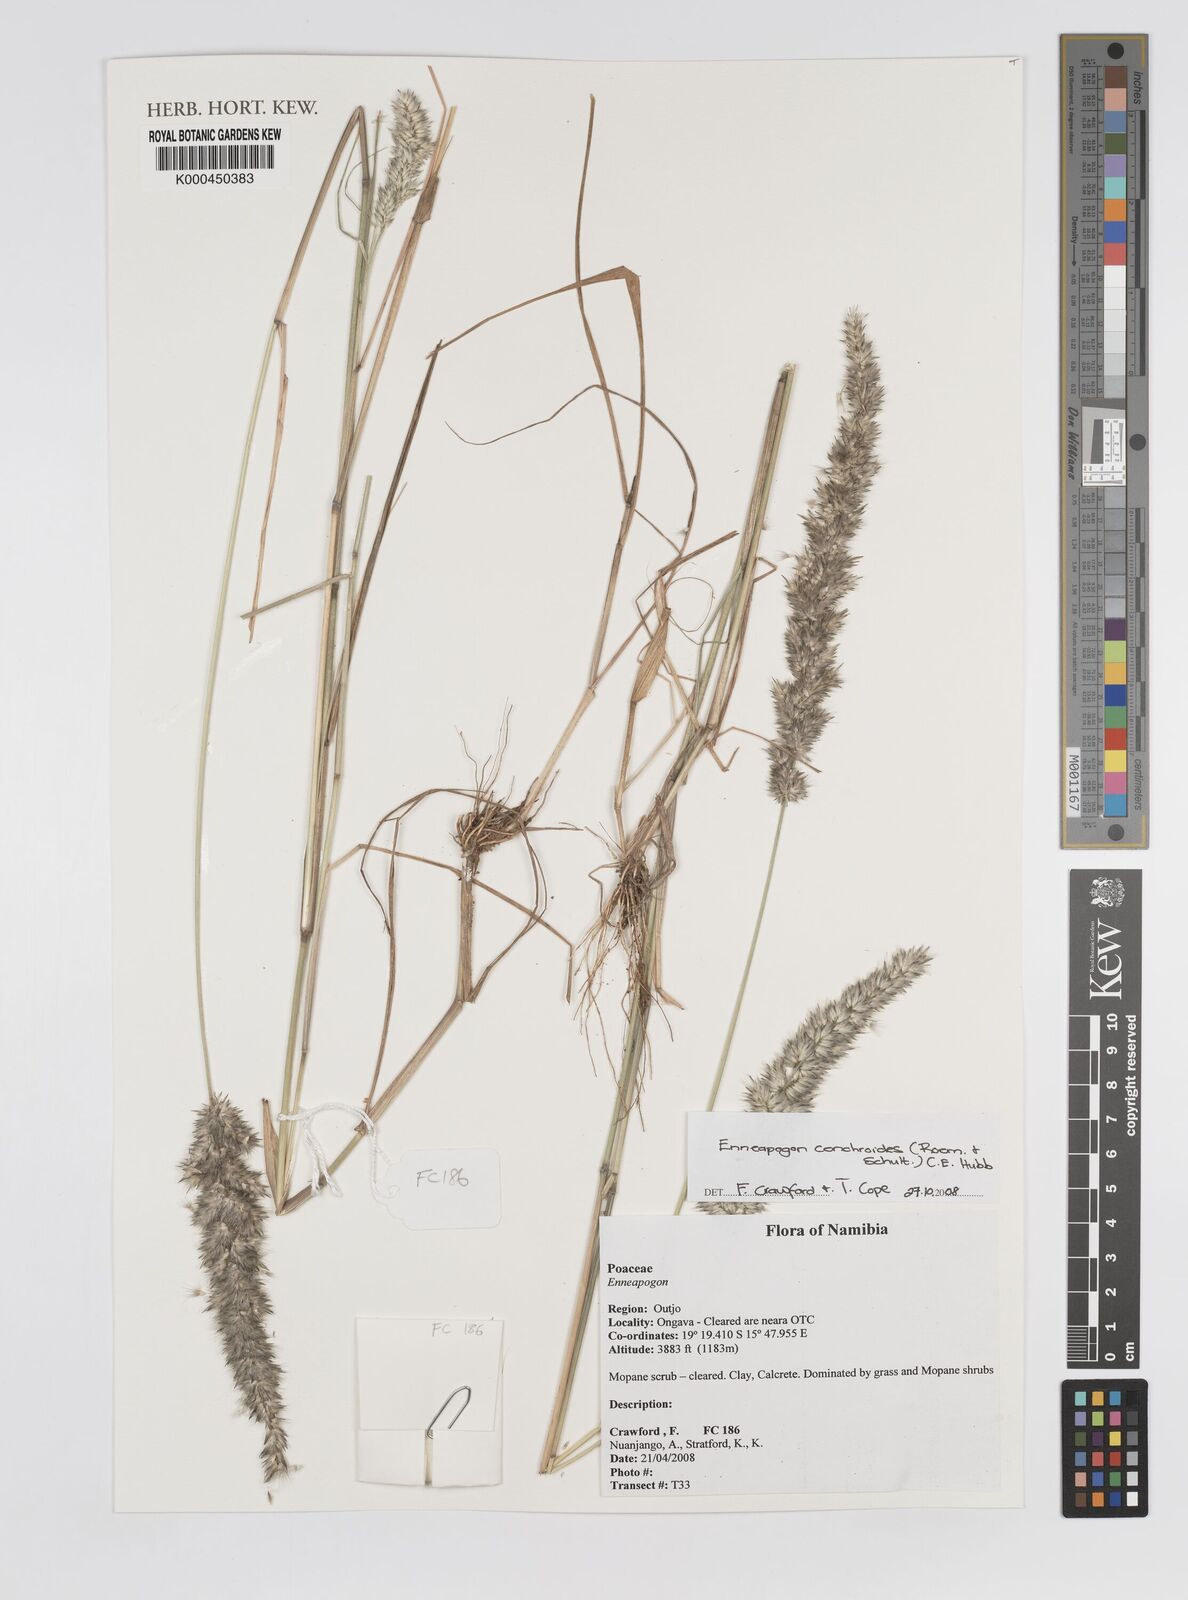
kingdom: Plantae
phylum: Tracheophyta
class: Liliopsida
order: Poales
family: Poaceae
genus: Enneapogon
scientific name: Enneapogon cenchroides
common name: Soft feather pappusgrass
